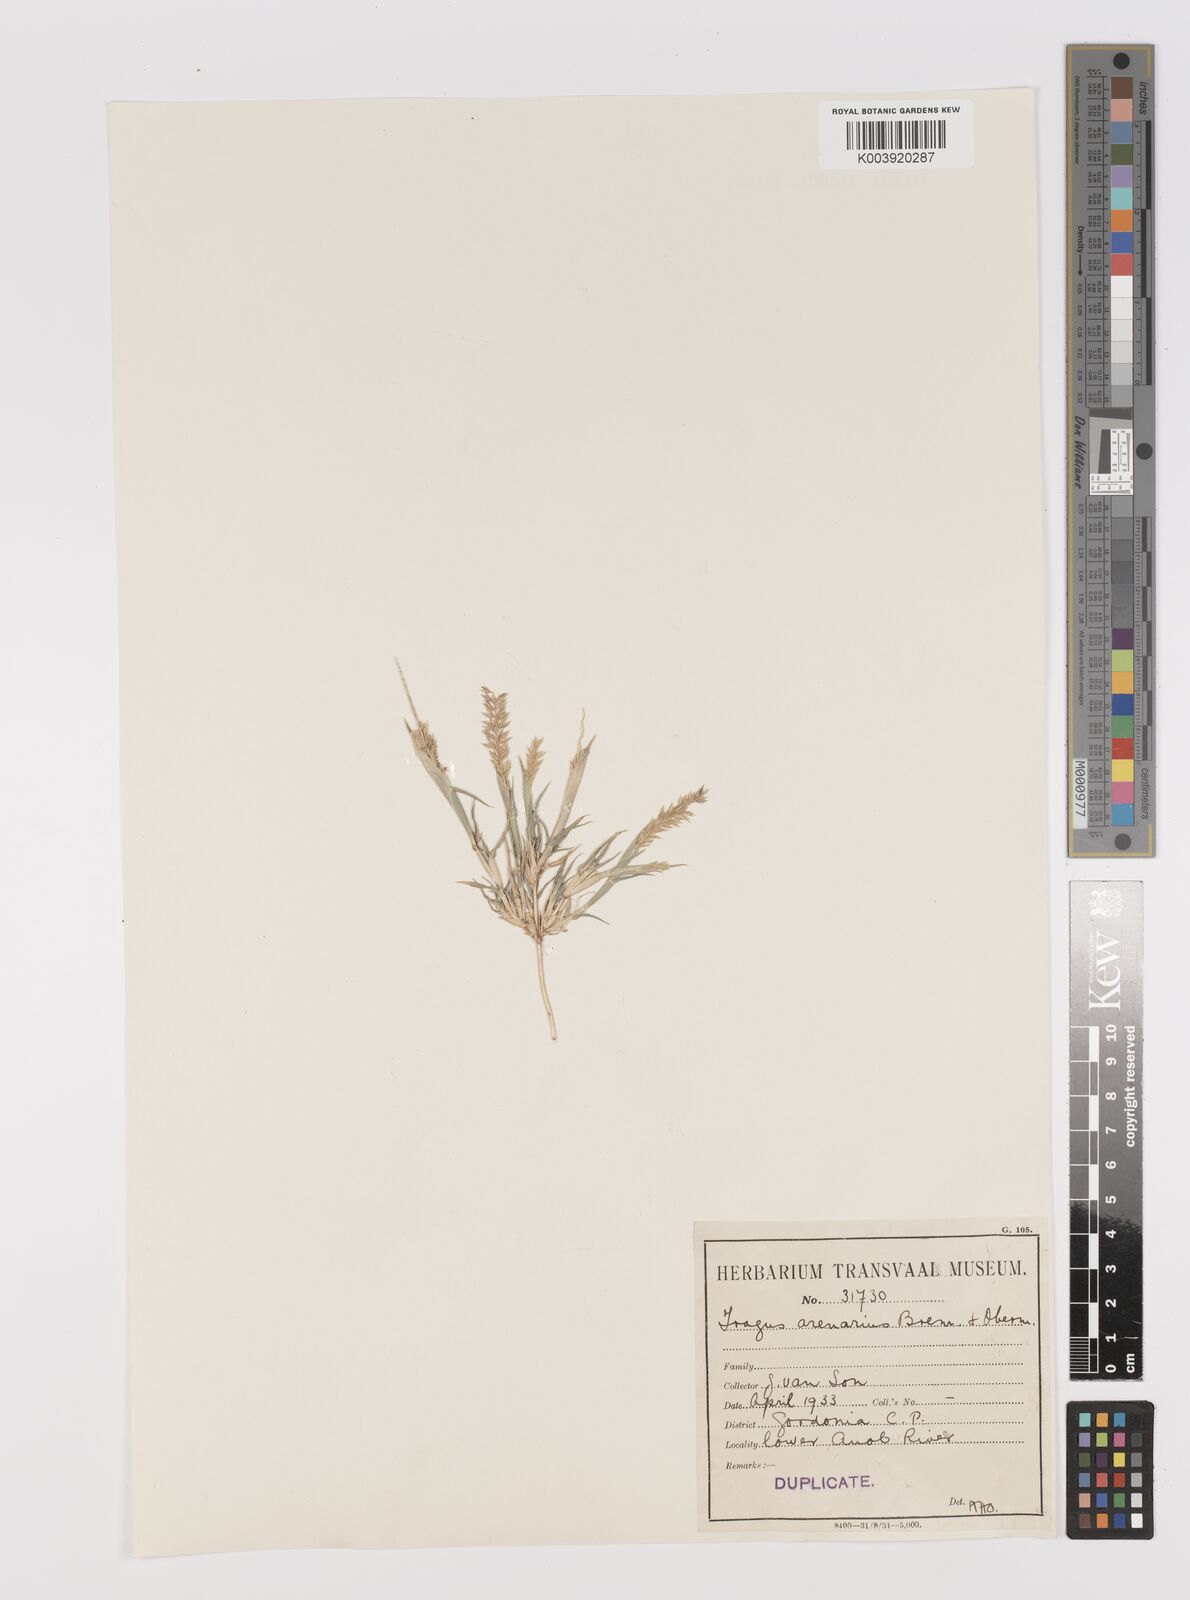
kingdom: Plantae
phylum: Tracheophyta
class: Liliopsida
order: Poales
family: Poaceae
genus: Tragus
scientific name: Tragus racemosus
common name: European bur-grass
